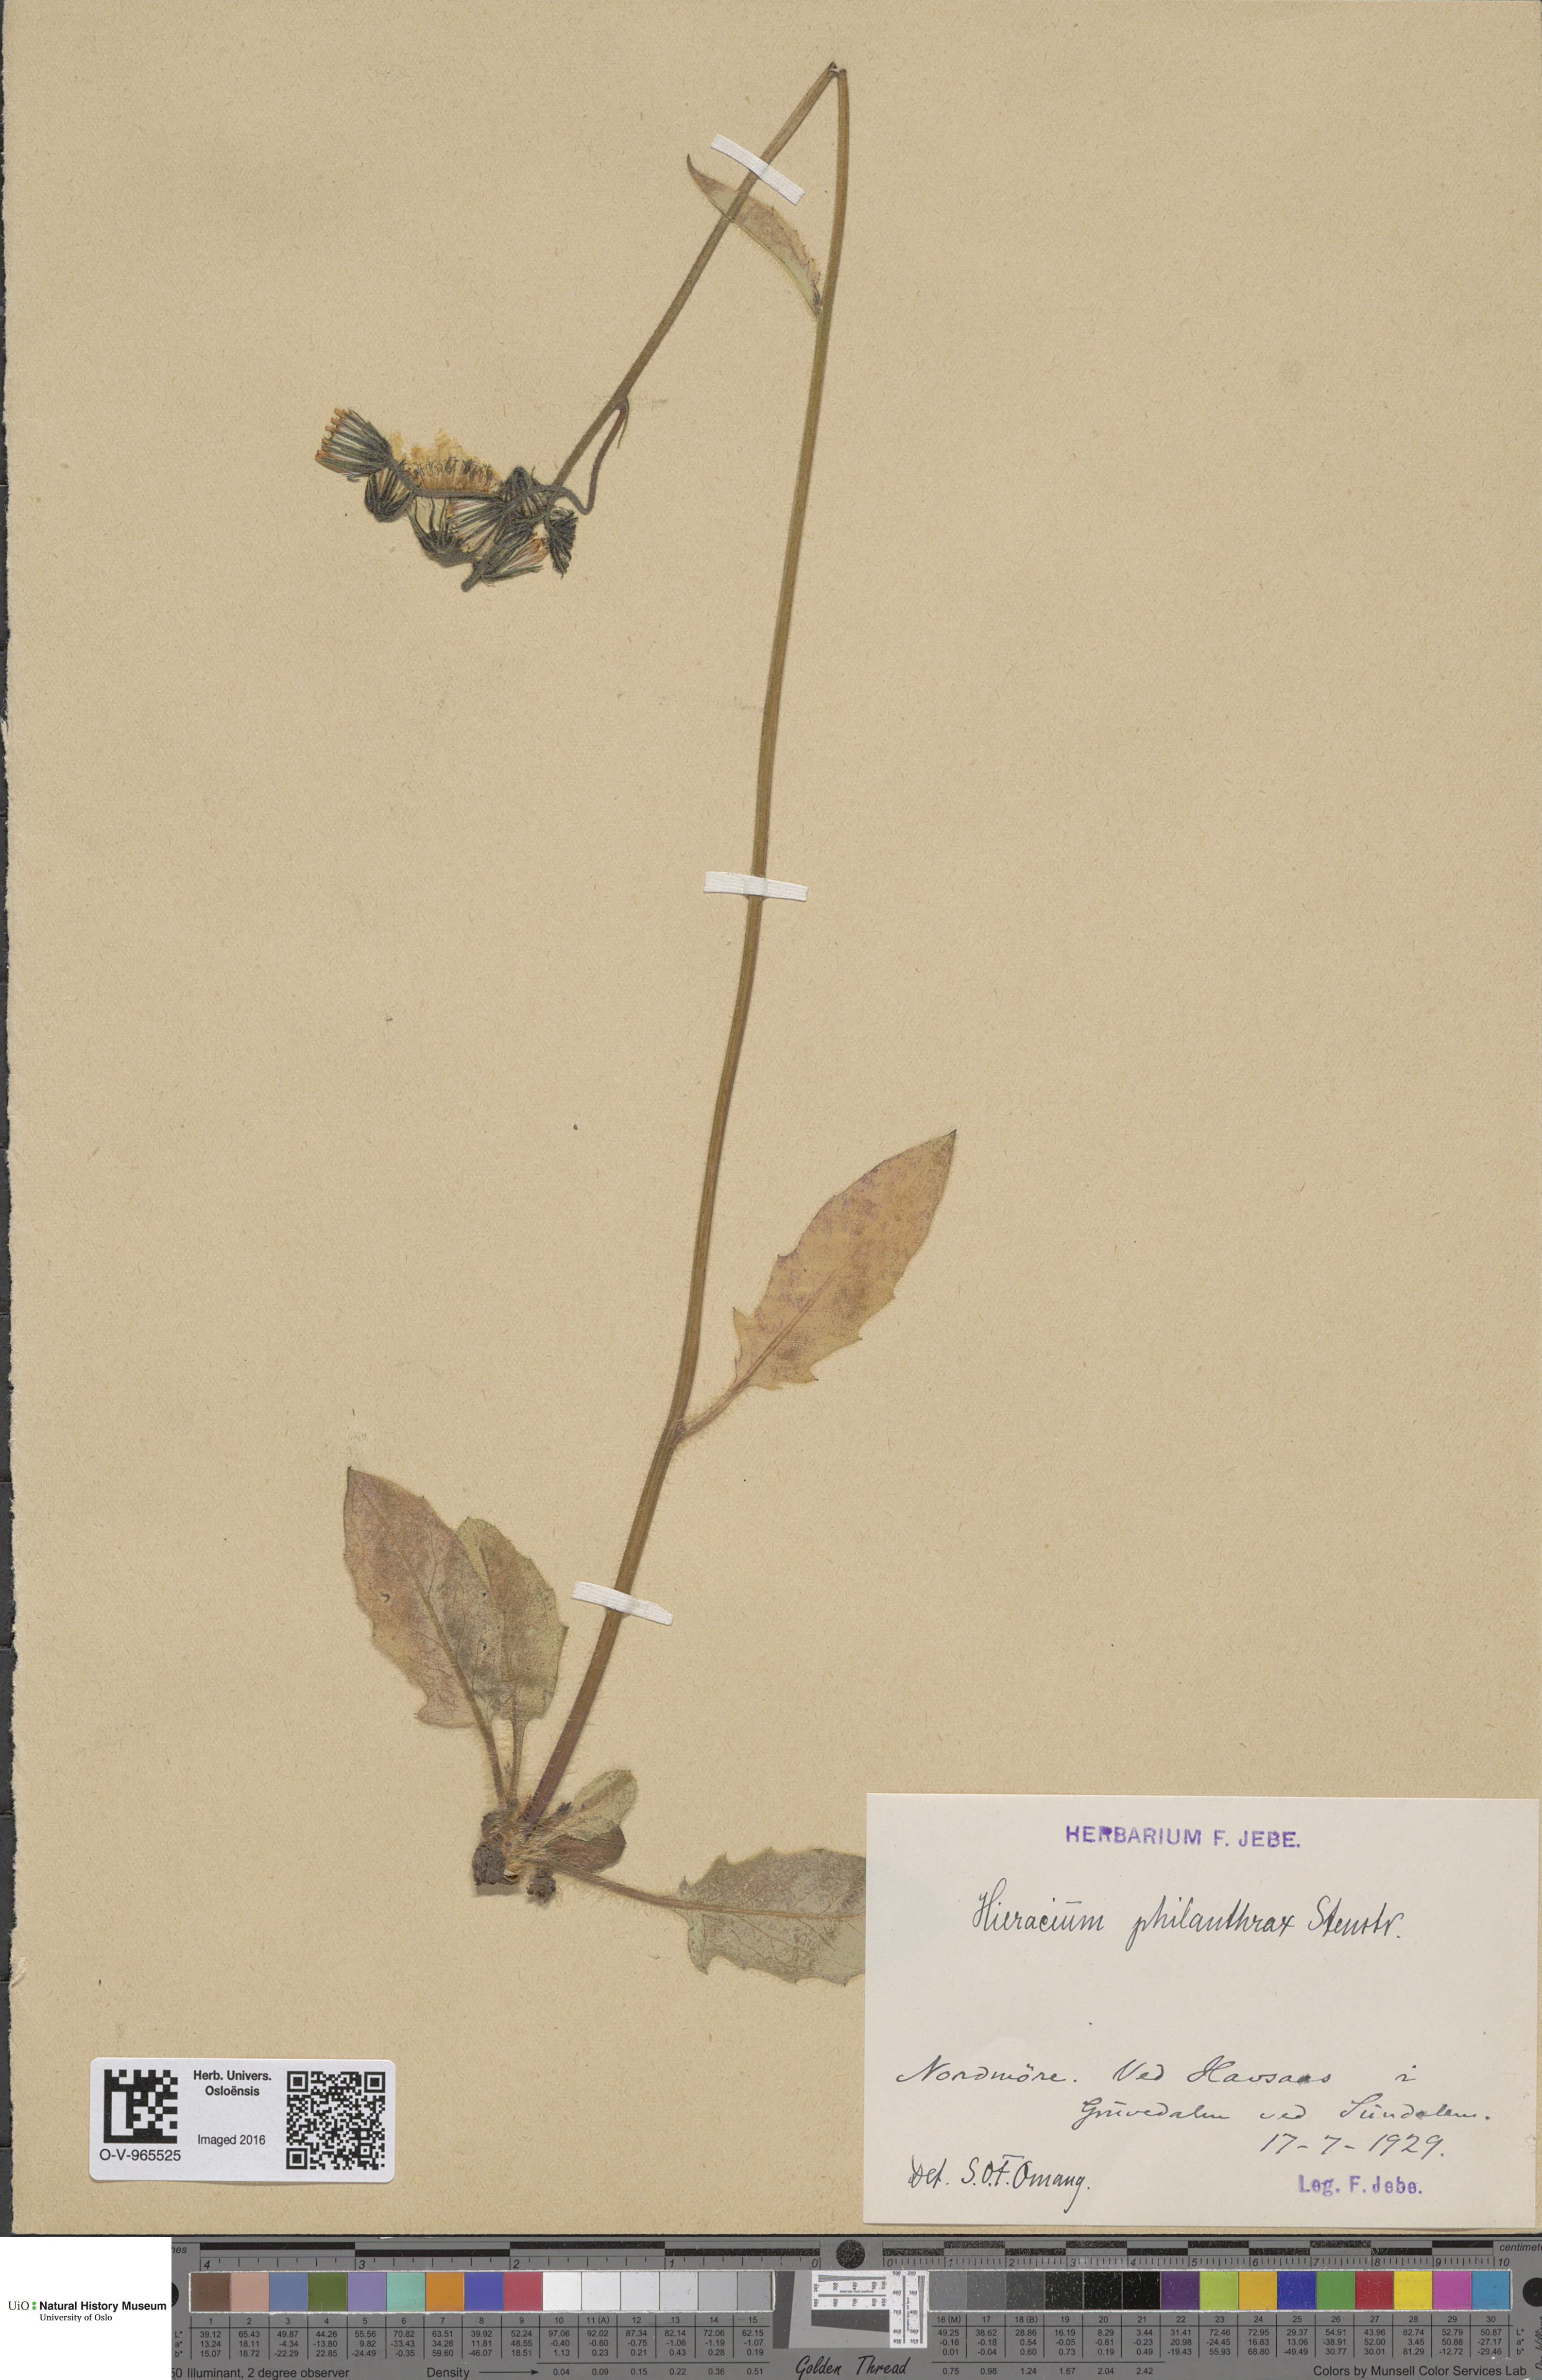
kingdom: Plantae
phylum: Tracheophyta
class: Magnoliopsida
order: Asterales
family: Asteraceae
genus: Hieracium
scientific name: Hieracium philanthrax
